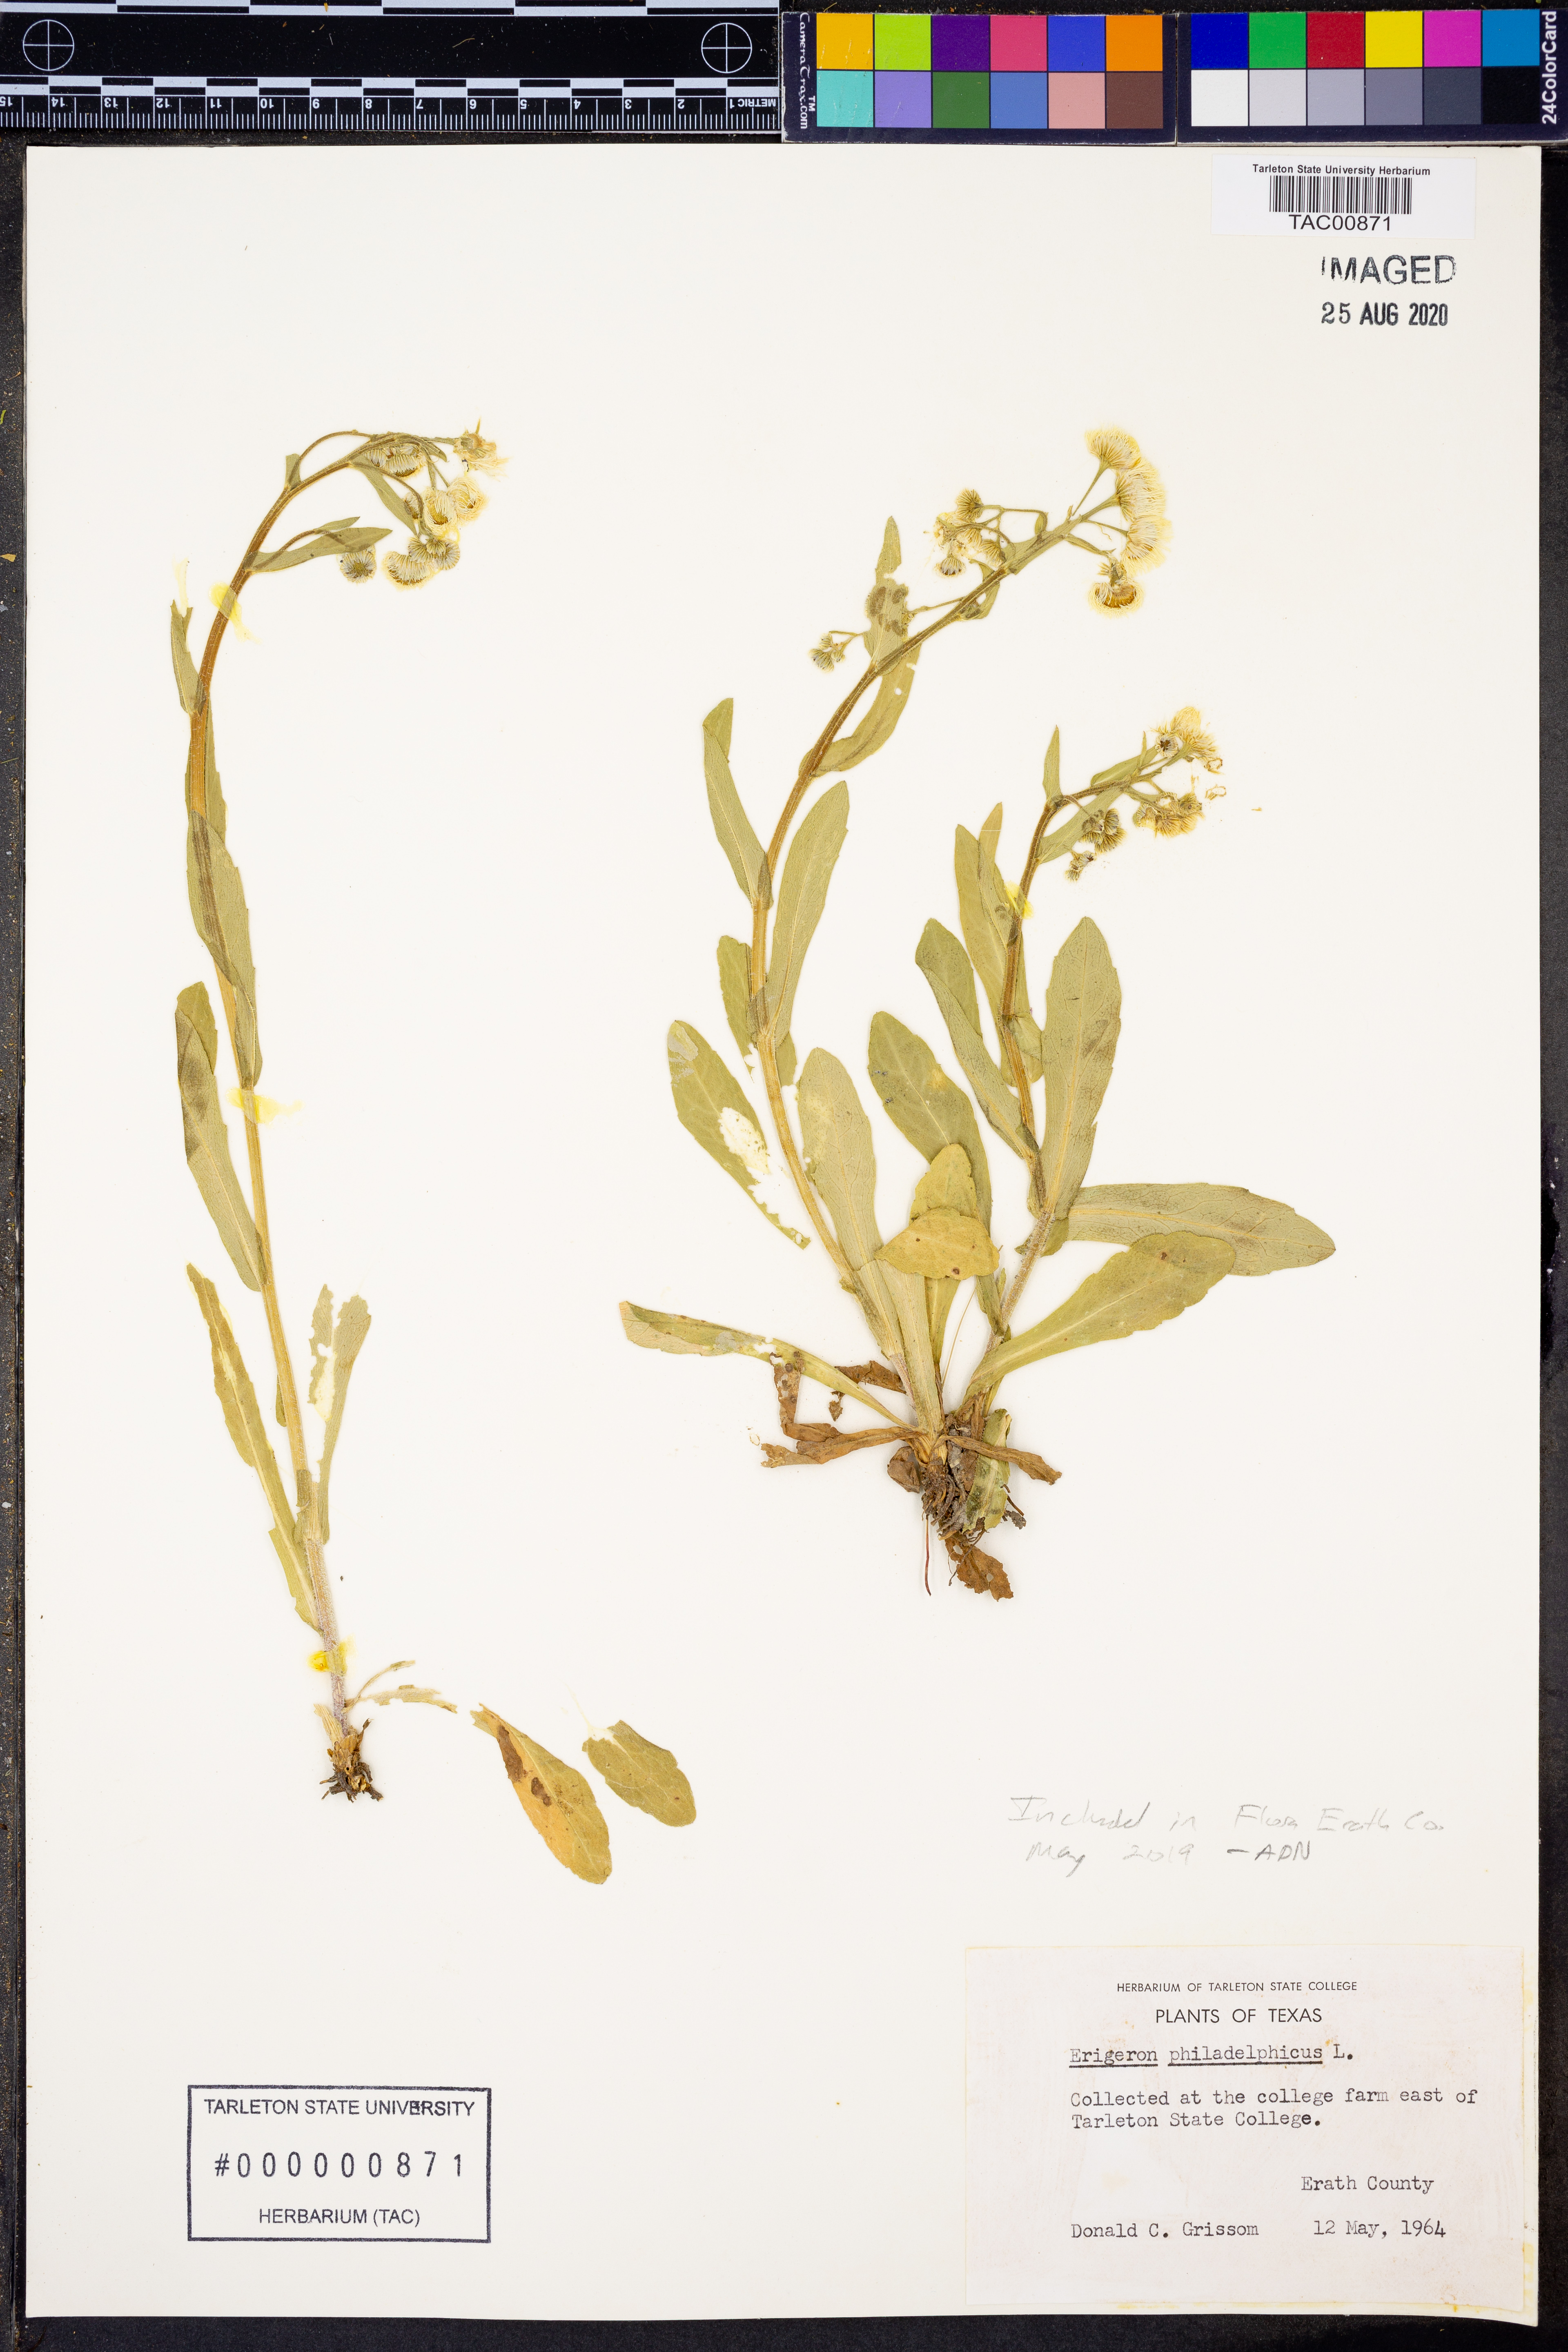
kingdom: Plantae
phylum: Tracheophyta
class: Magnoliopsida
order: Asterales
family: Asteraceae
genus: Erigeron
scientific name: Erigeron philadelphicus
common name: Robin's-plantain
